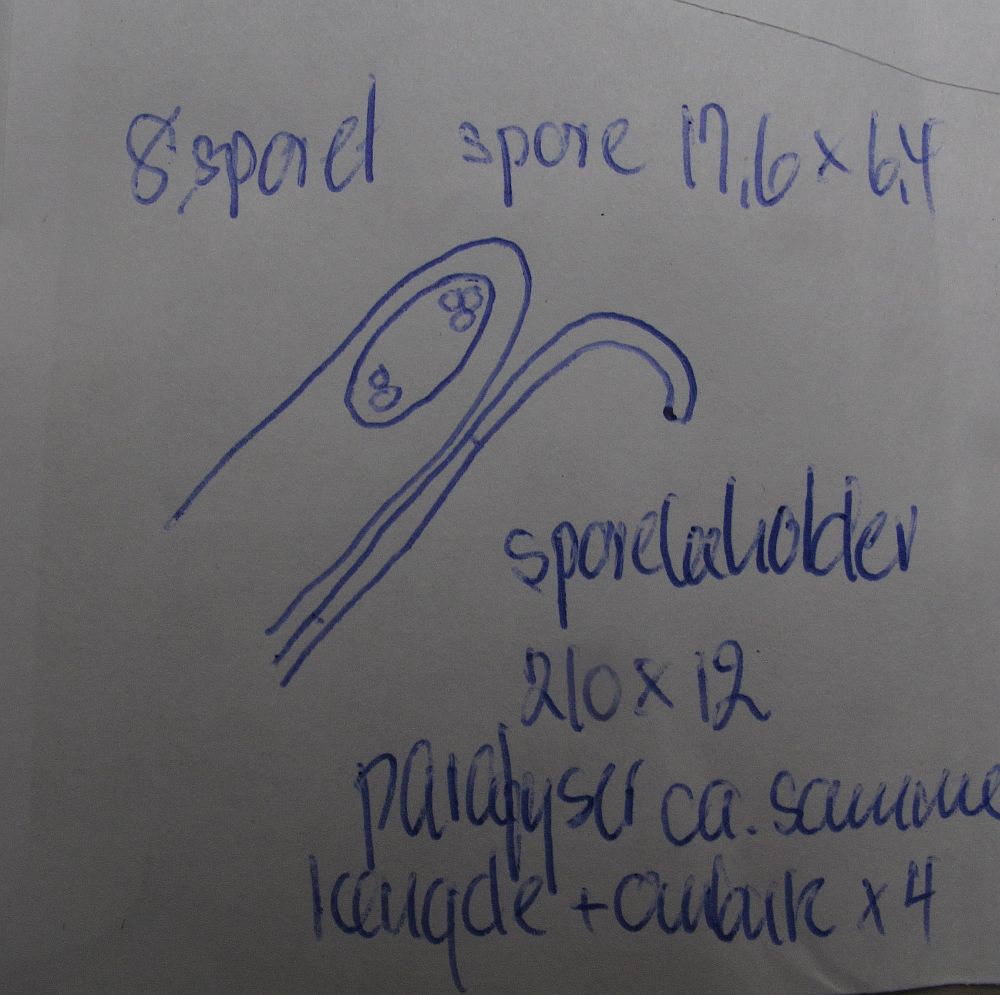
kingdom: Fungi
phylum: Ascomycota
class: Pezizomycetes
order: Pezizales
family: Pyronemataceae
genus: Byssonectria
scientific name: Byssonectria terrestris
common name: hjortebæger
